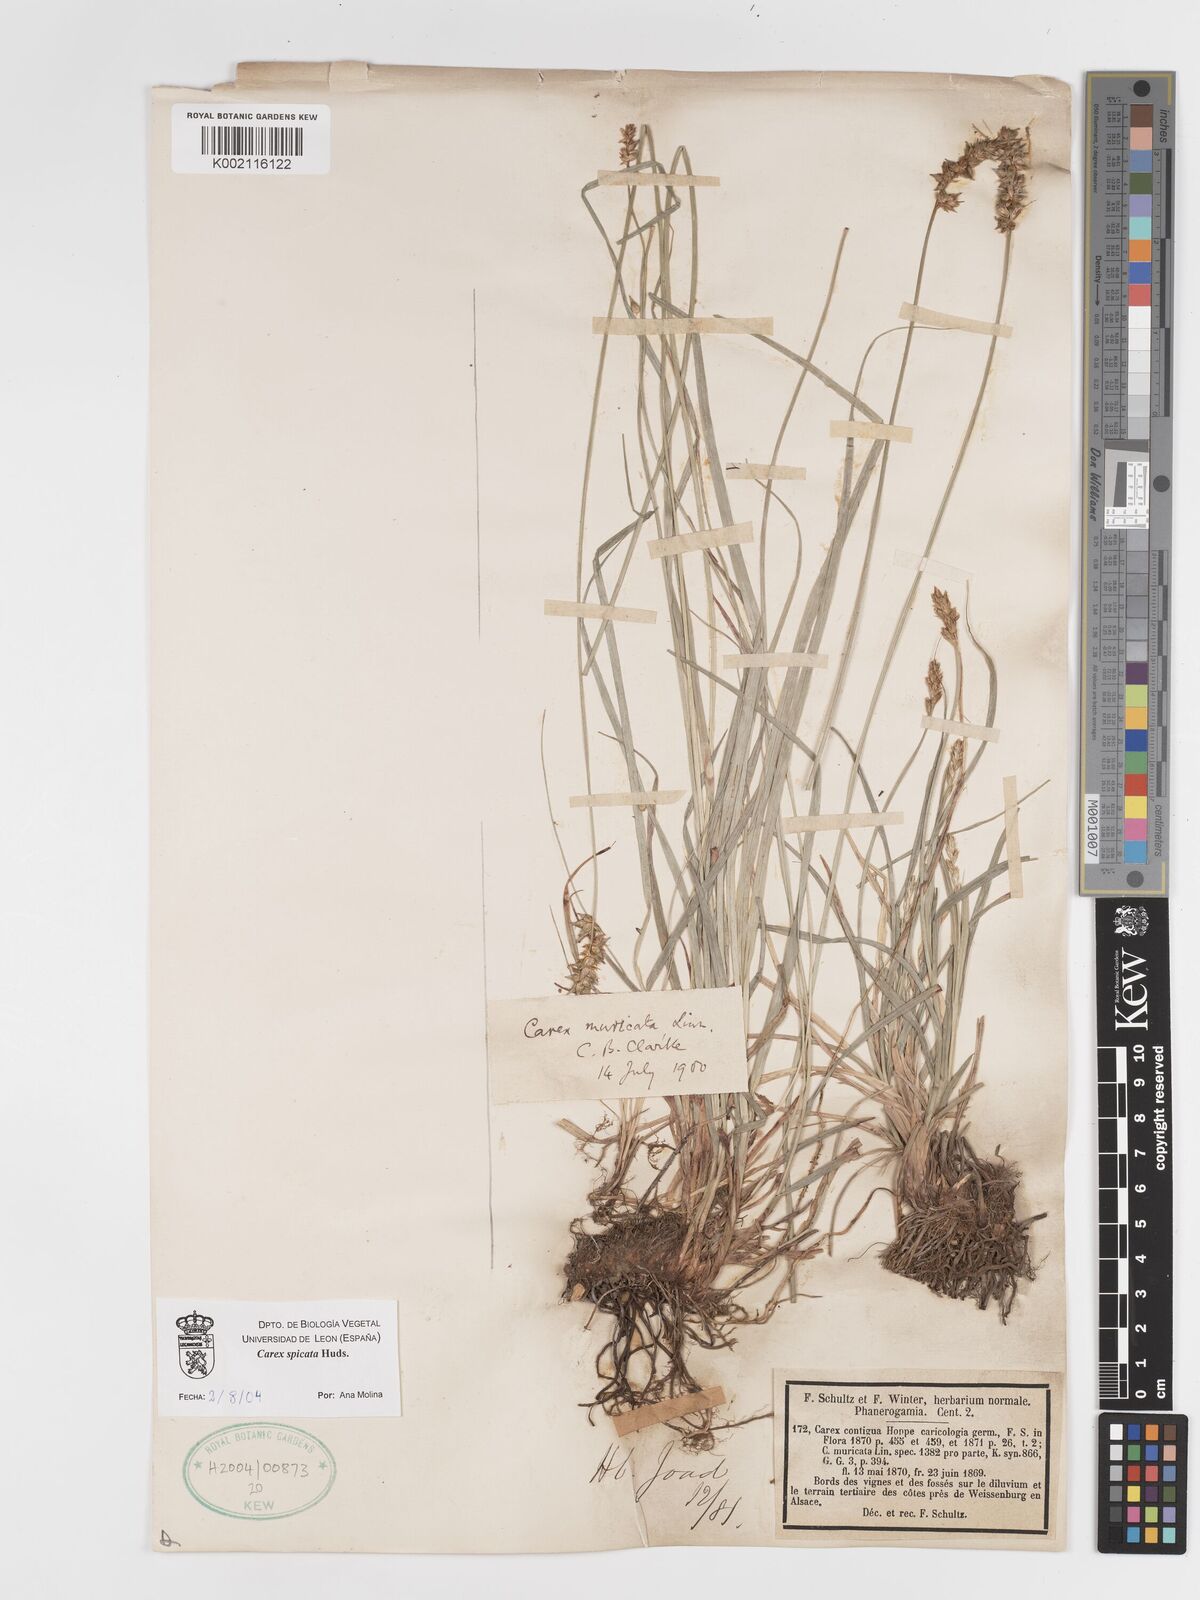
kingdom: Plantae
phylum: Tracheophyta
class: Liliopsida
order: Poales
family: Cyperaceae
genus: Carex
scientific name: Carex spicata
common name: Spiked sedge
